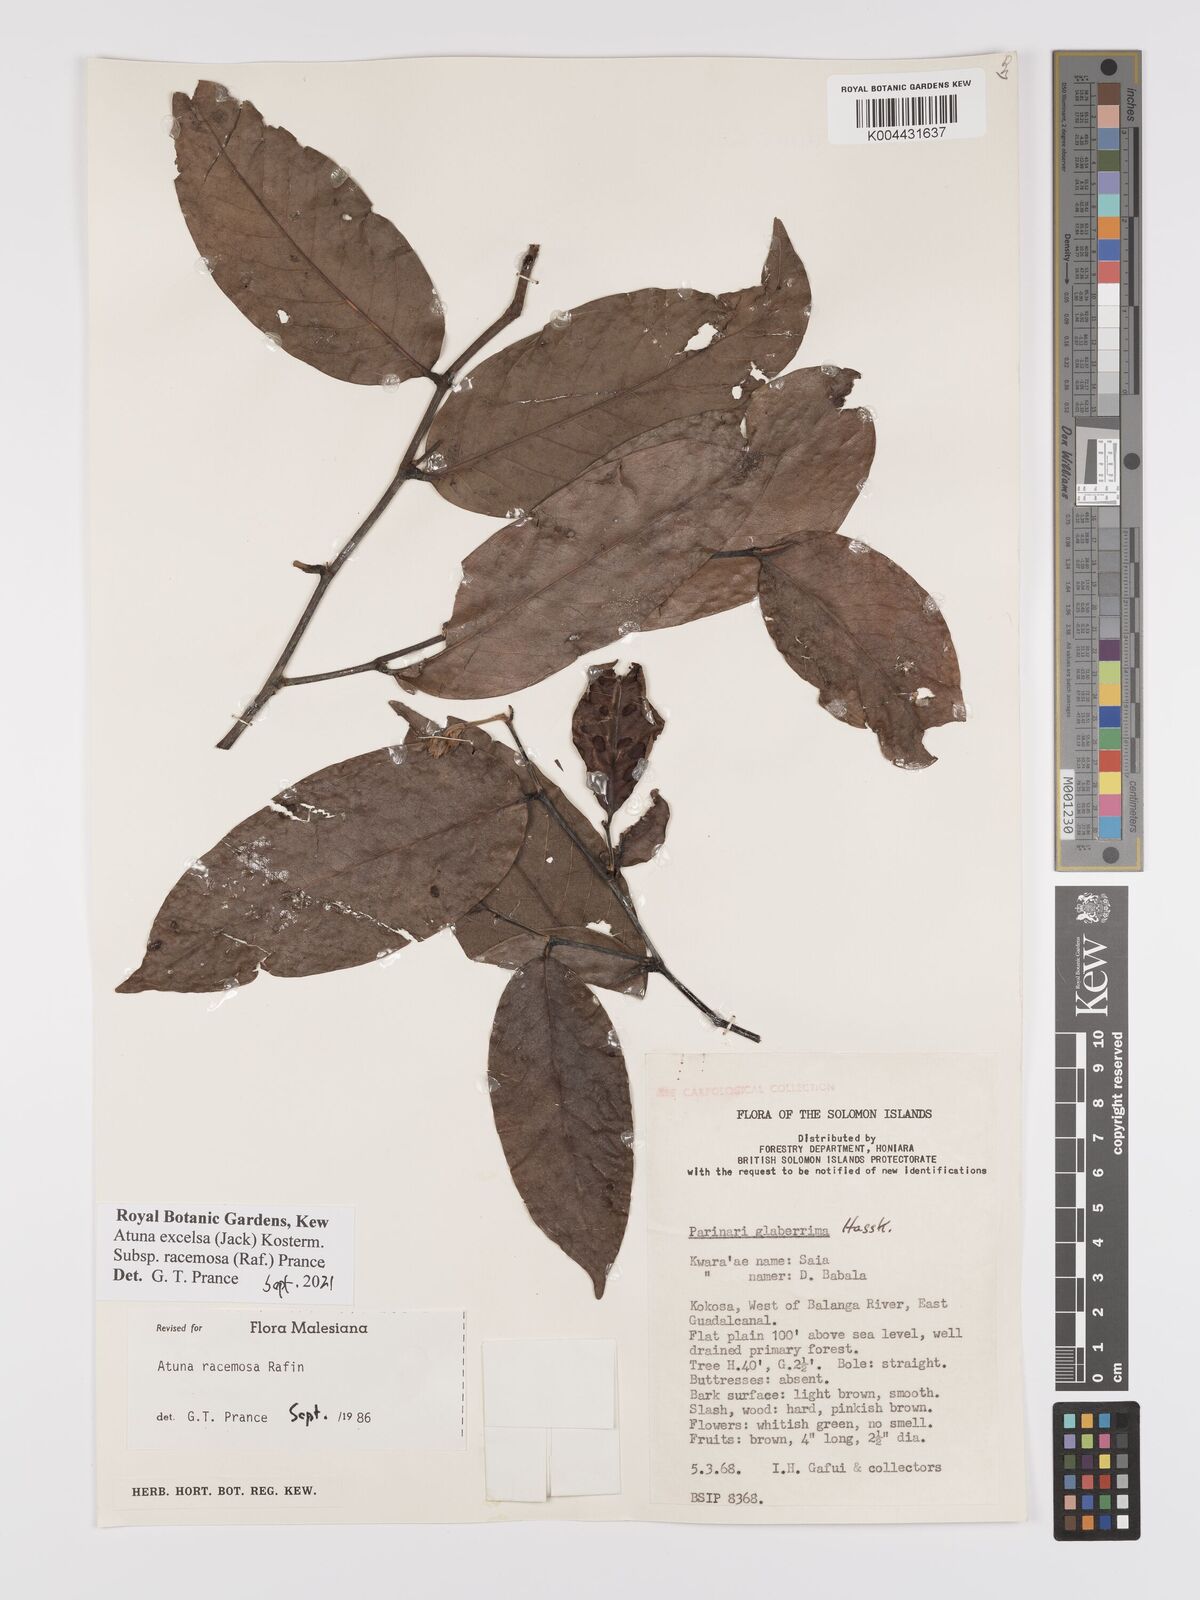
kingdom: Plantae
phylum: Tracheophyta
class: Magnoliopsida
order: Malpighiales
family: Chrysobalanaceae
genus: Atuna
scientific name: Atuna
